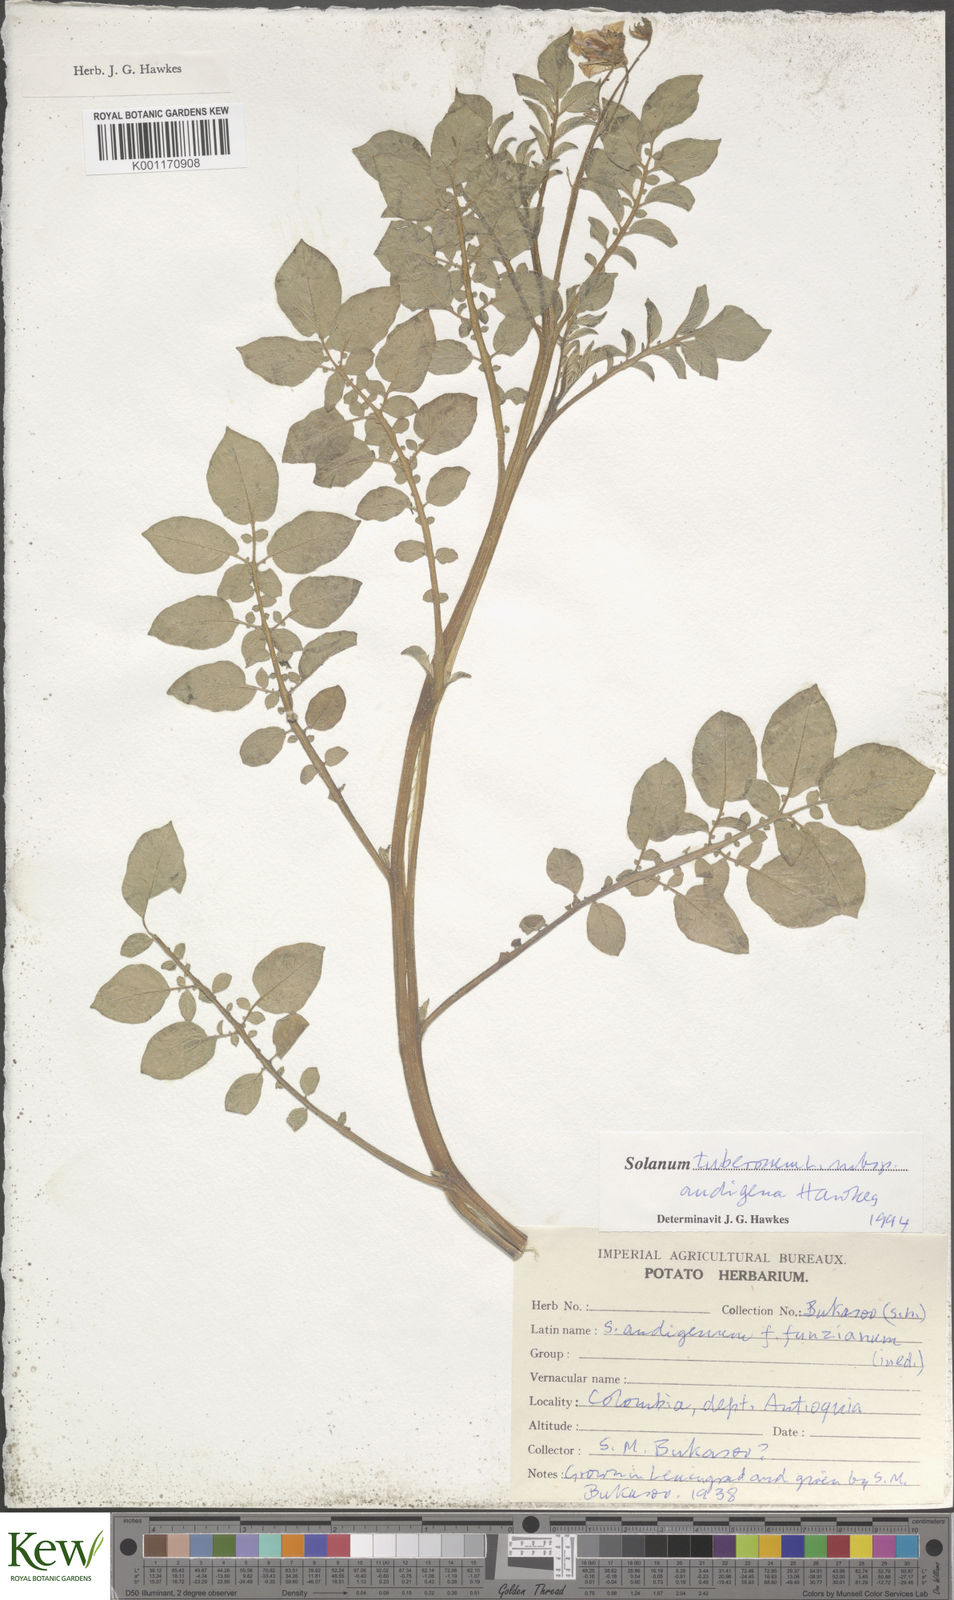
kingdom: Plantae
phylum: Tracheophyta
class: Magnoliopsida
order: Solanales
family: Solanaceae
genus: Solanum
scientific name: Solanum tuberosum
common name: Potato
